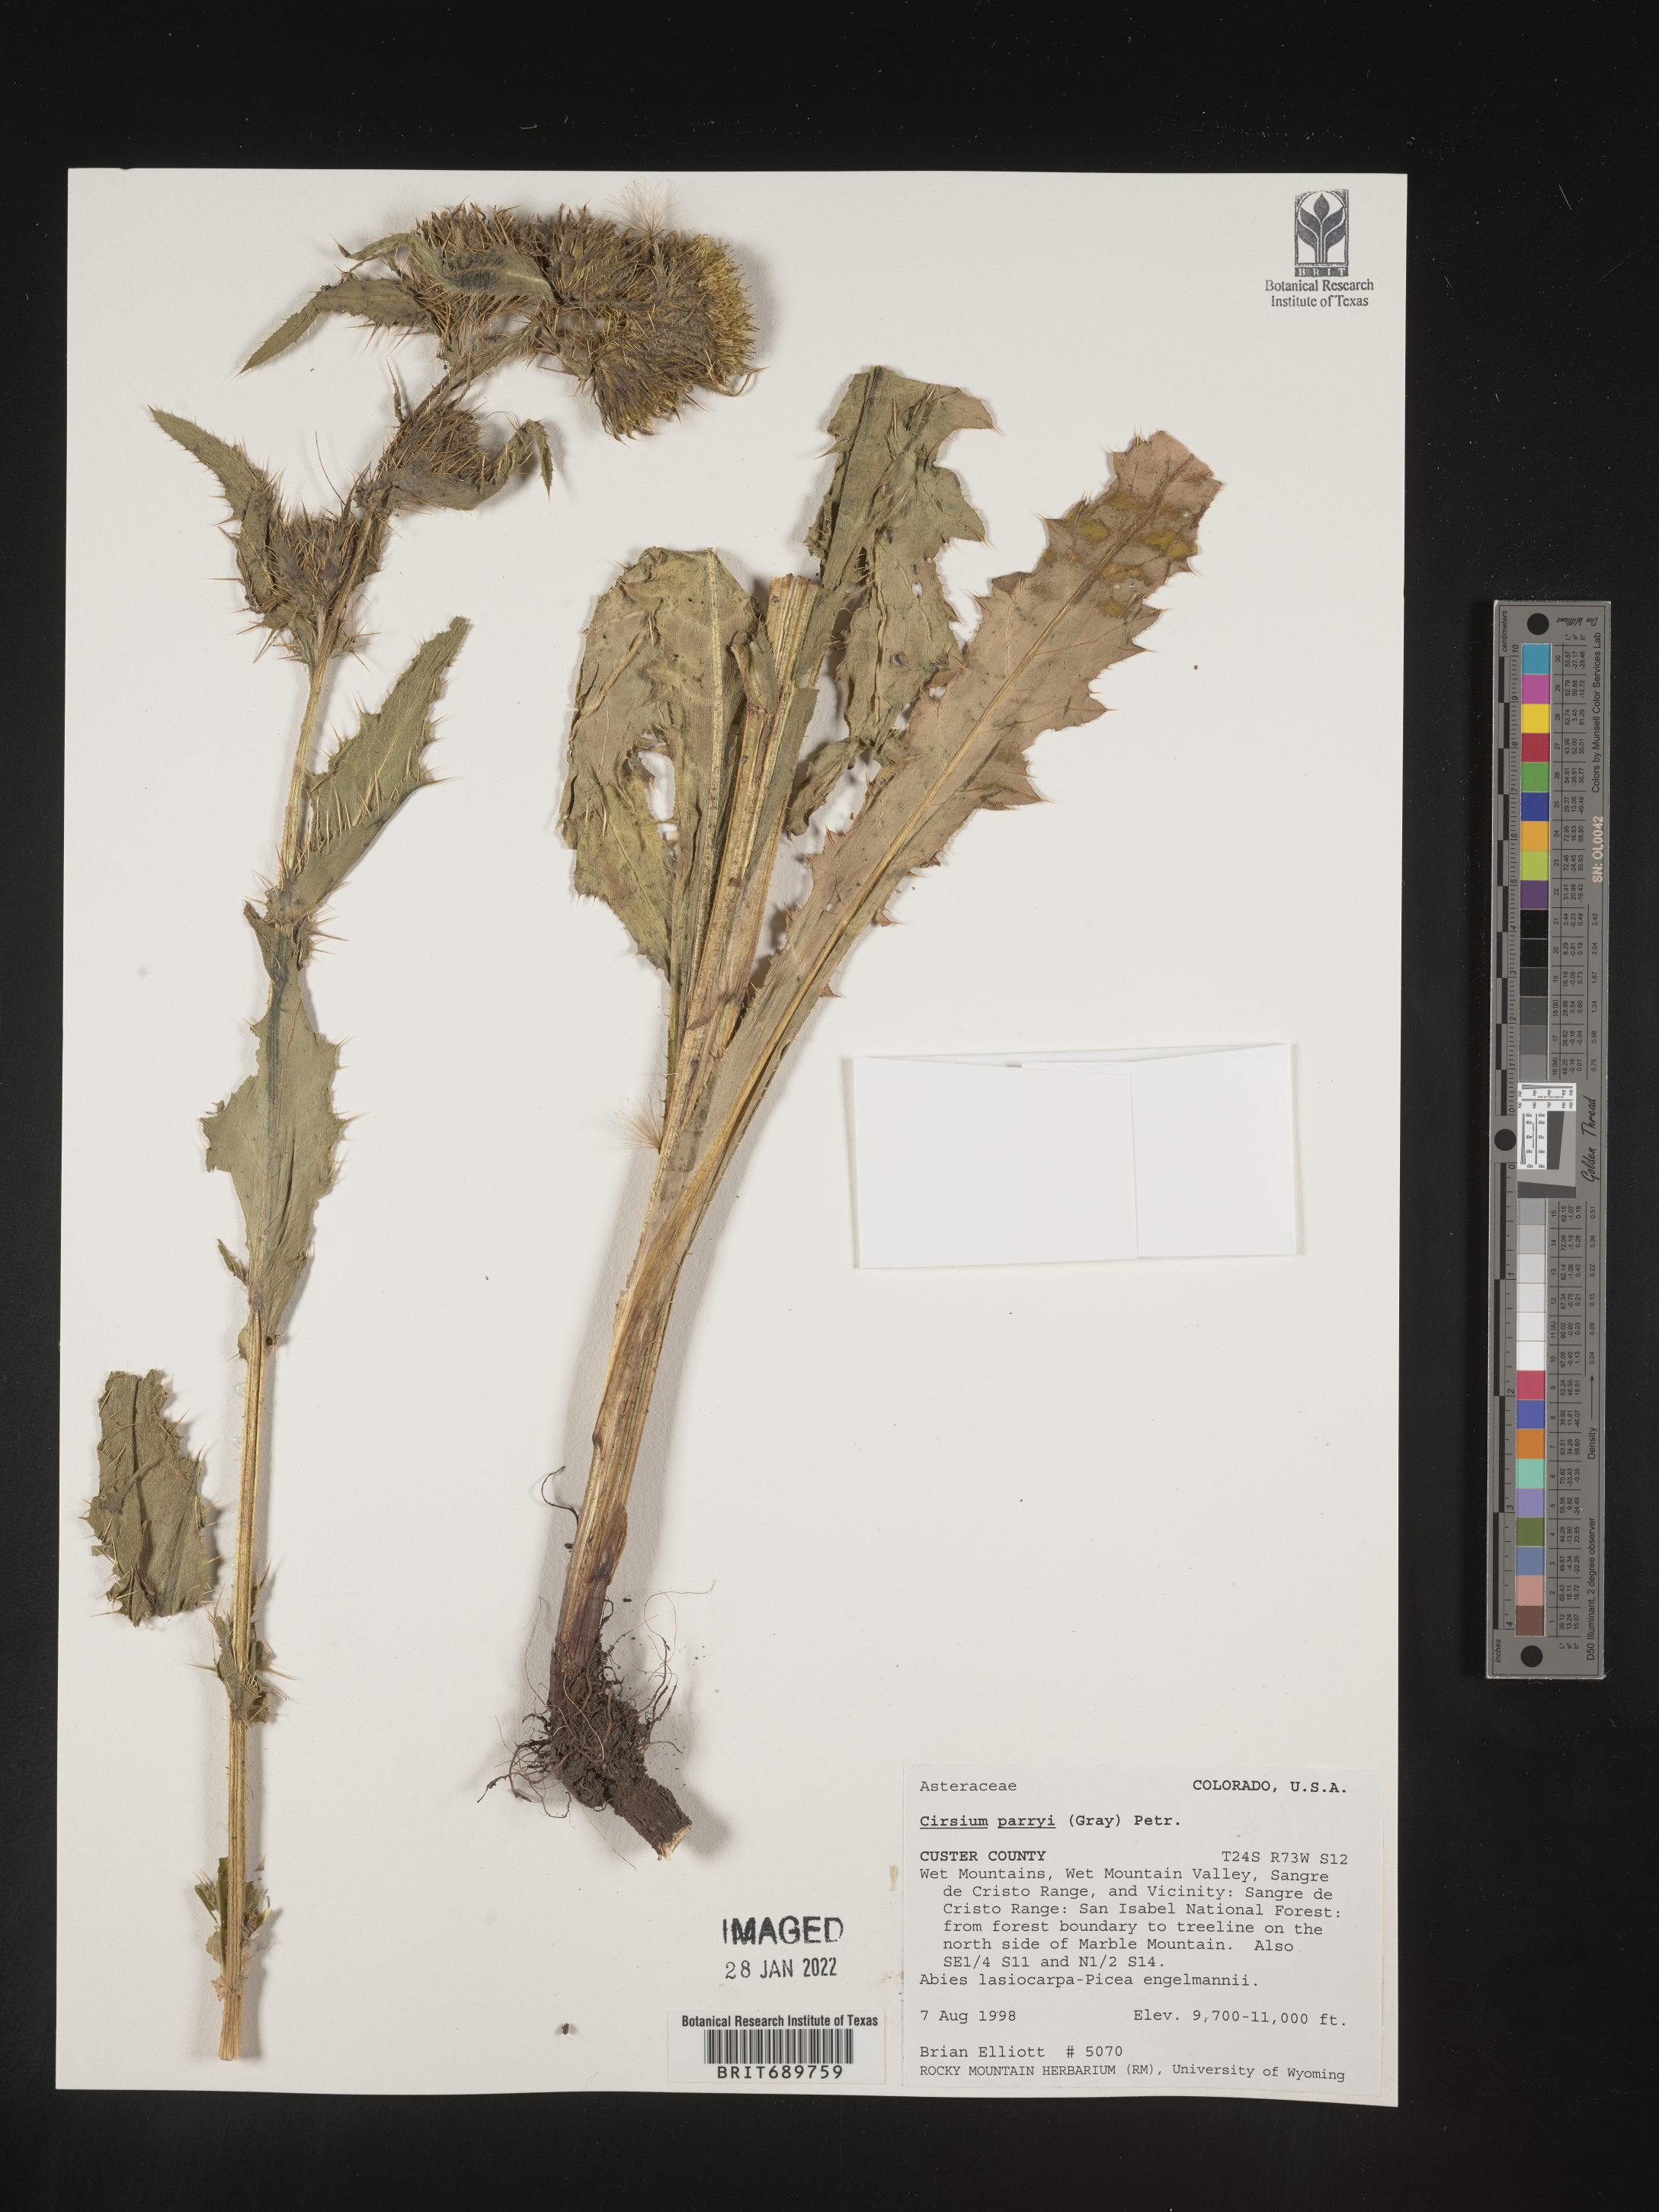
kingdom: Plantae
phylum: Tracheophyta
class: Magnoliopsida
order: Asterales
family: Asteraceae
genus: Cirsium
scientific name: Cirsium parryi
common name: Parry's thistle
